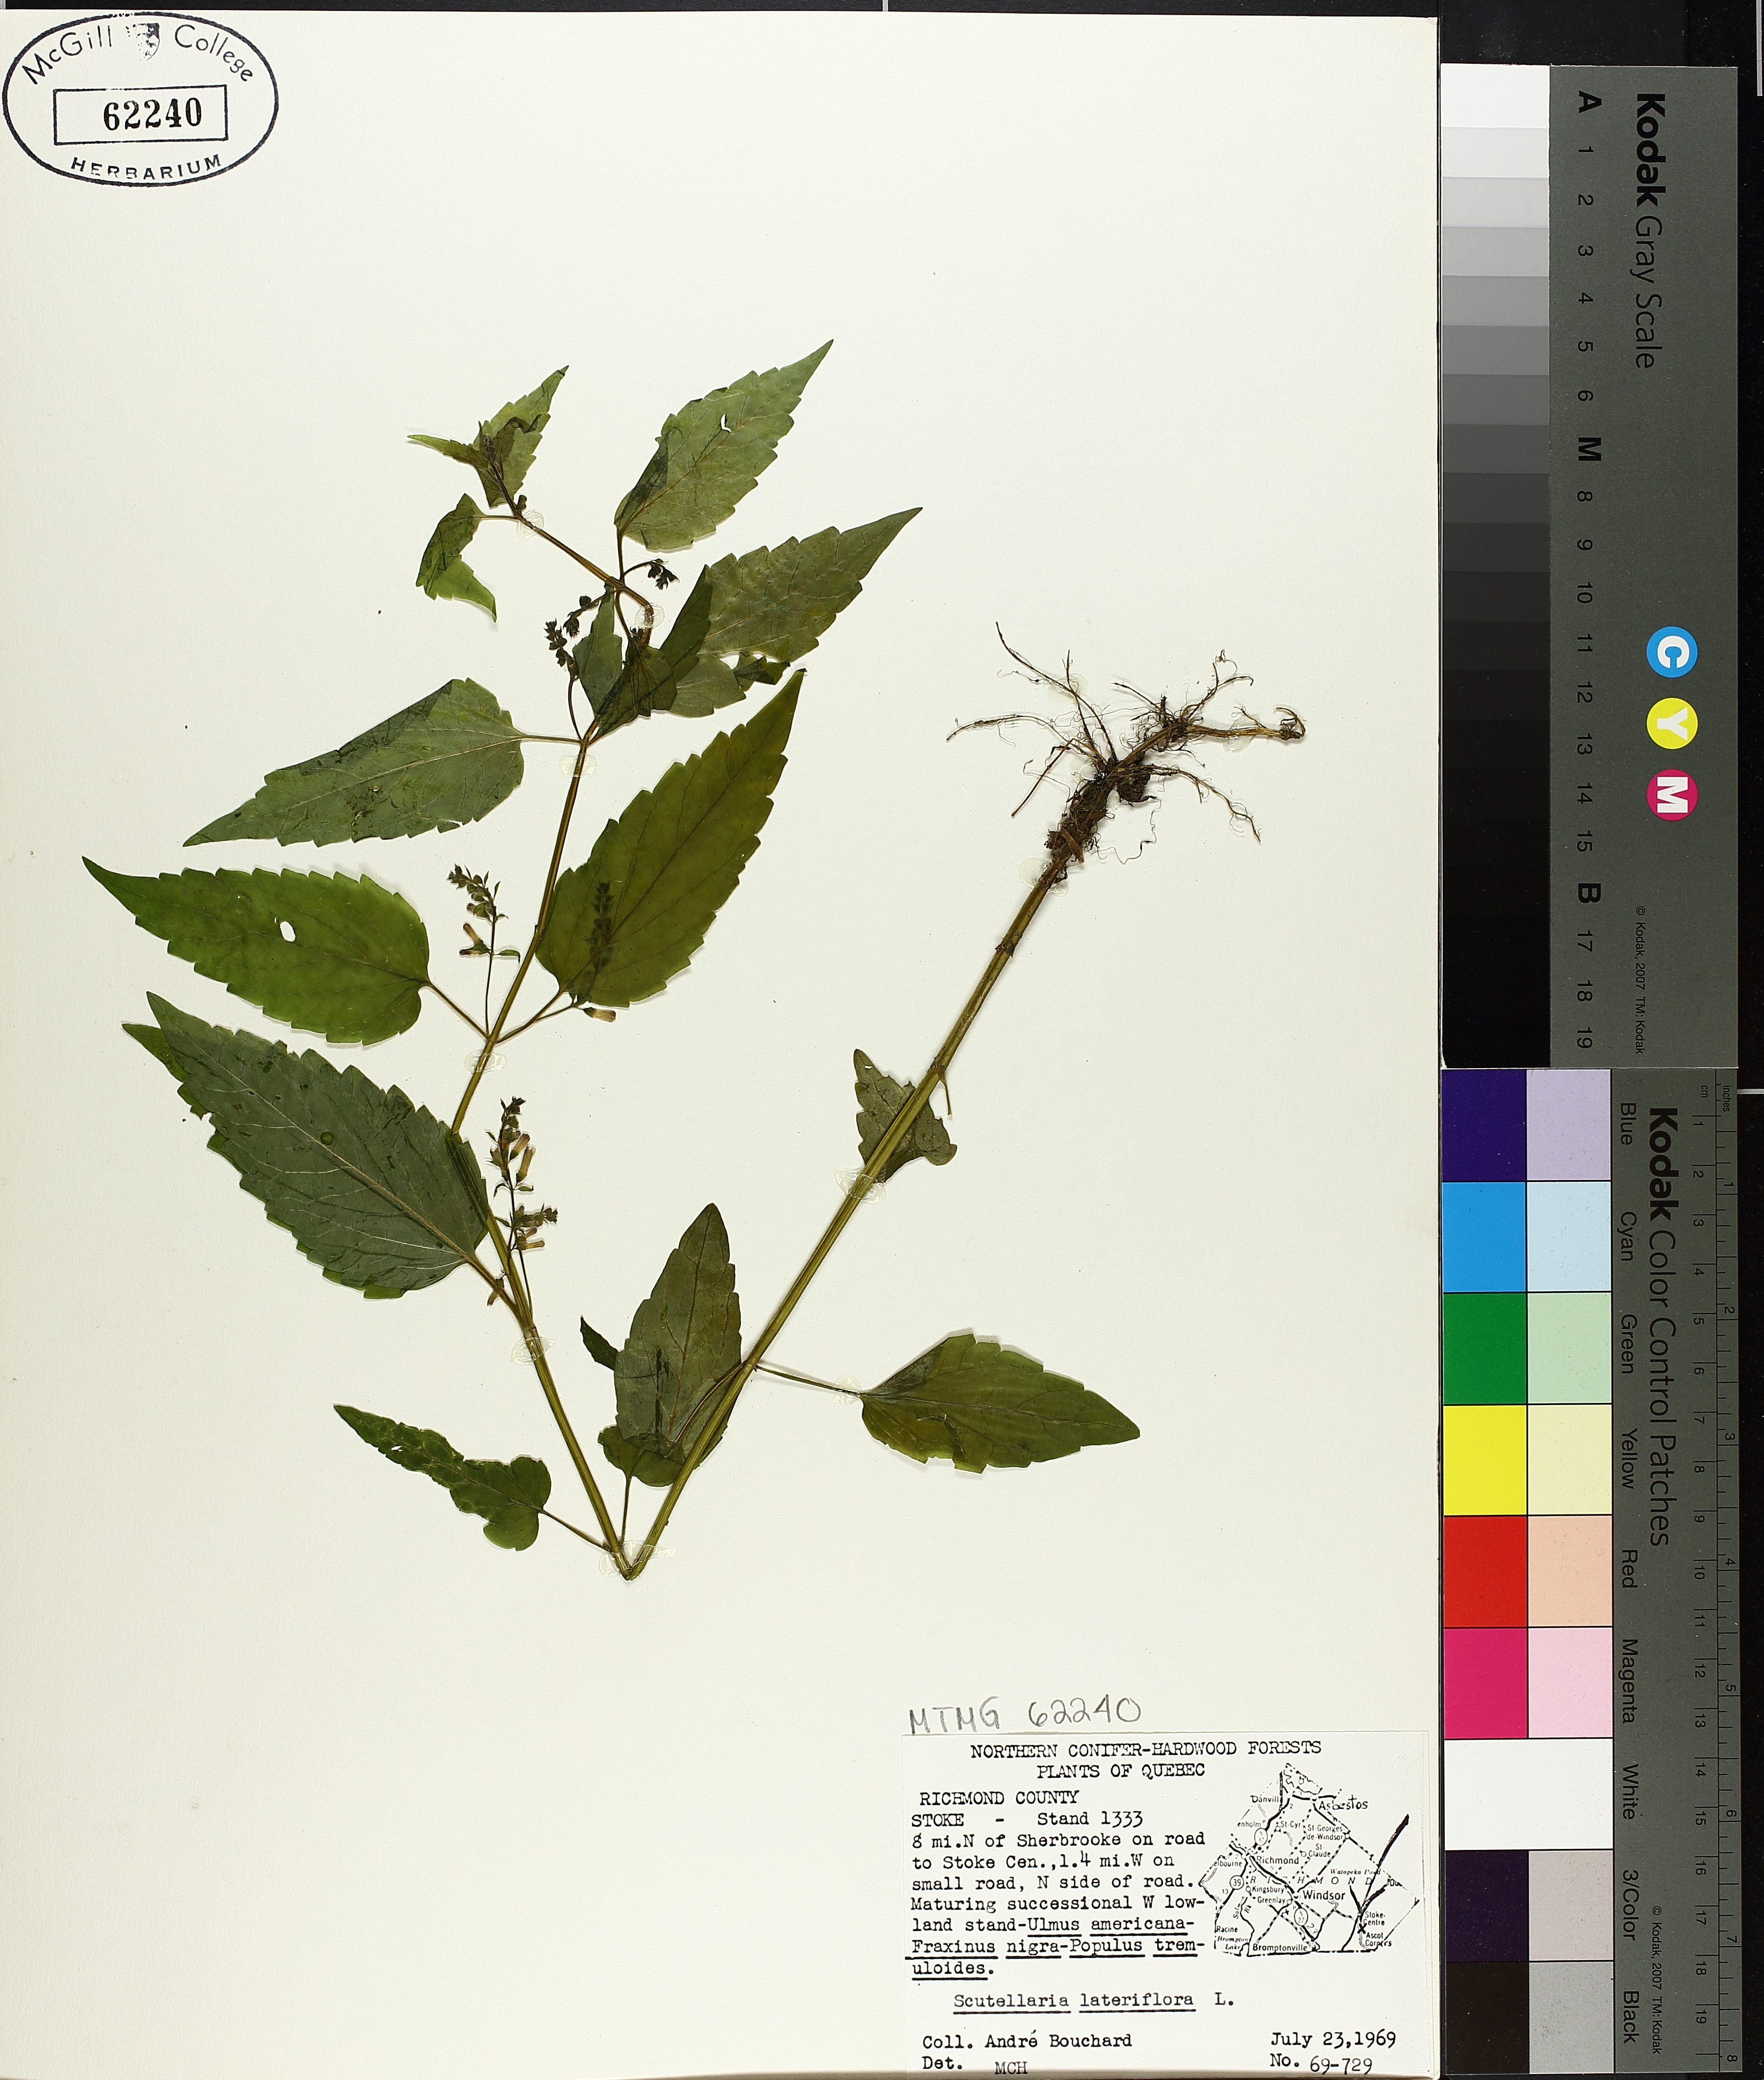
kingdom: Plantae
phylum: Tracheophyta
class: Magnoliopsida
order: Lamiales
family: Lamiaceae
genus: Scutellaria
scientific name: Scutellaria lateriflora
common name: Blue skullcap
